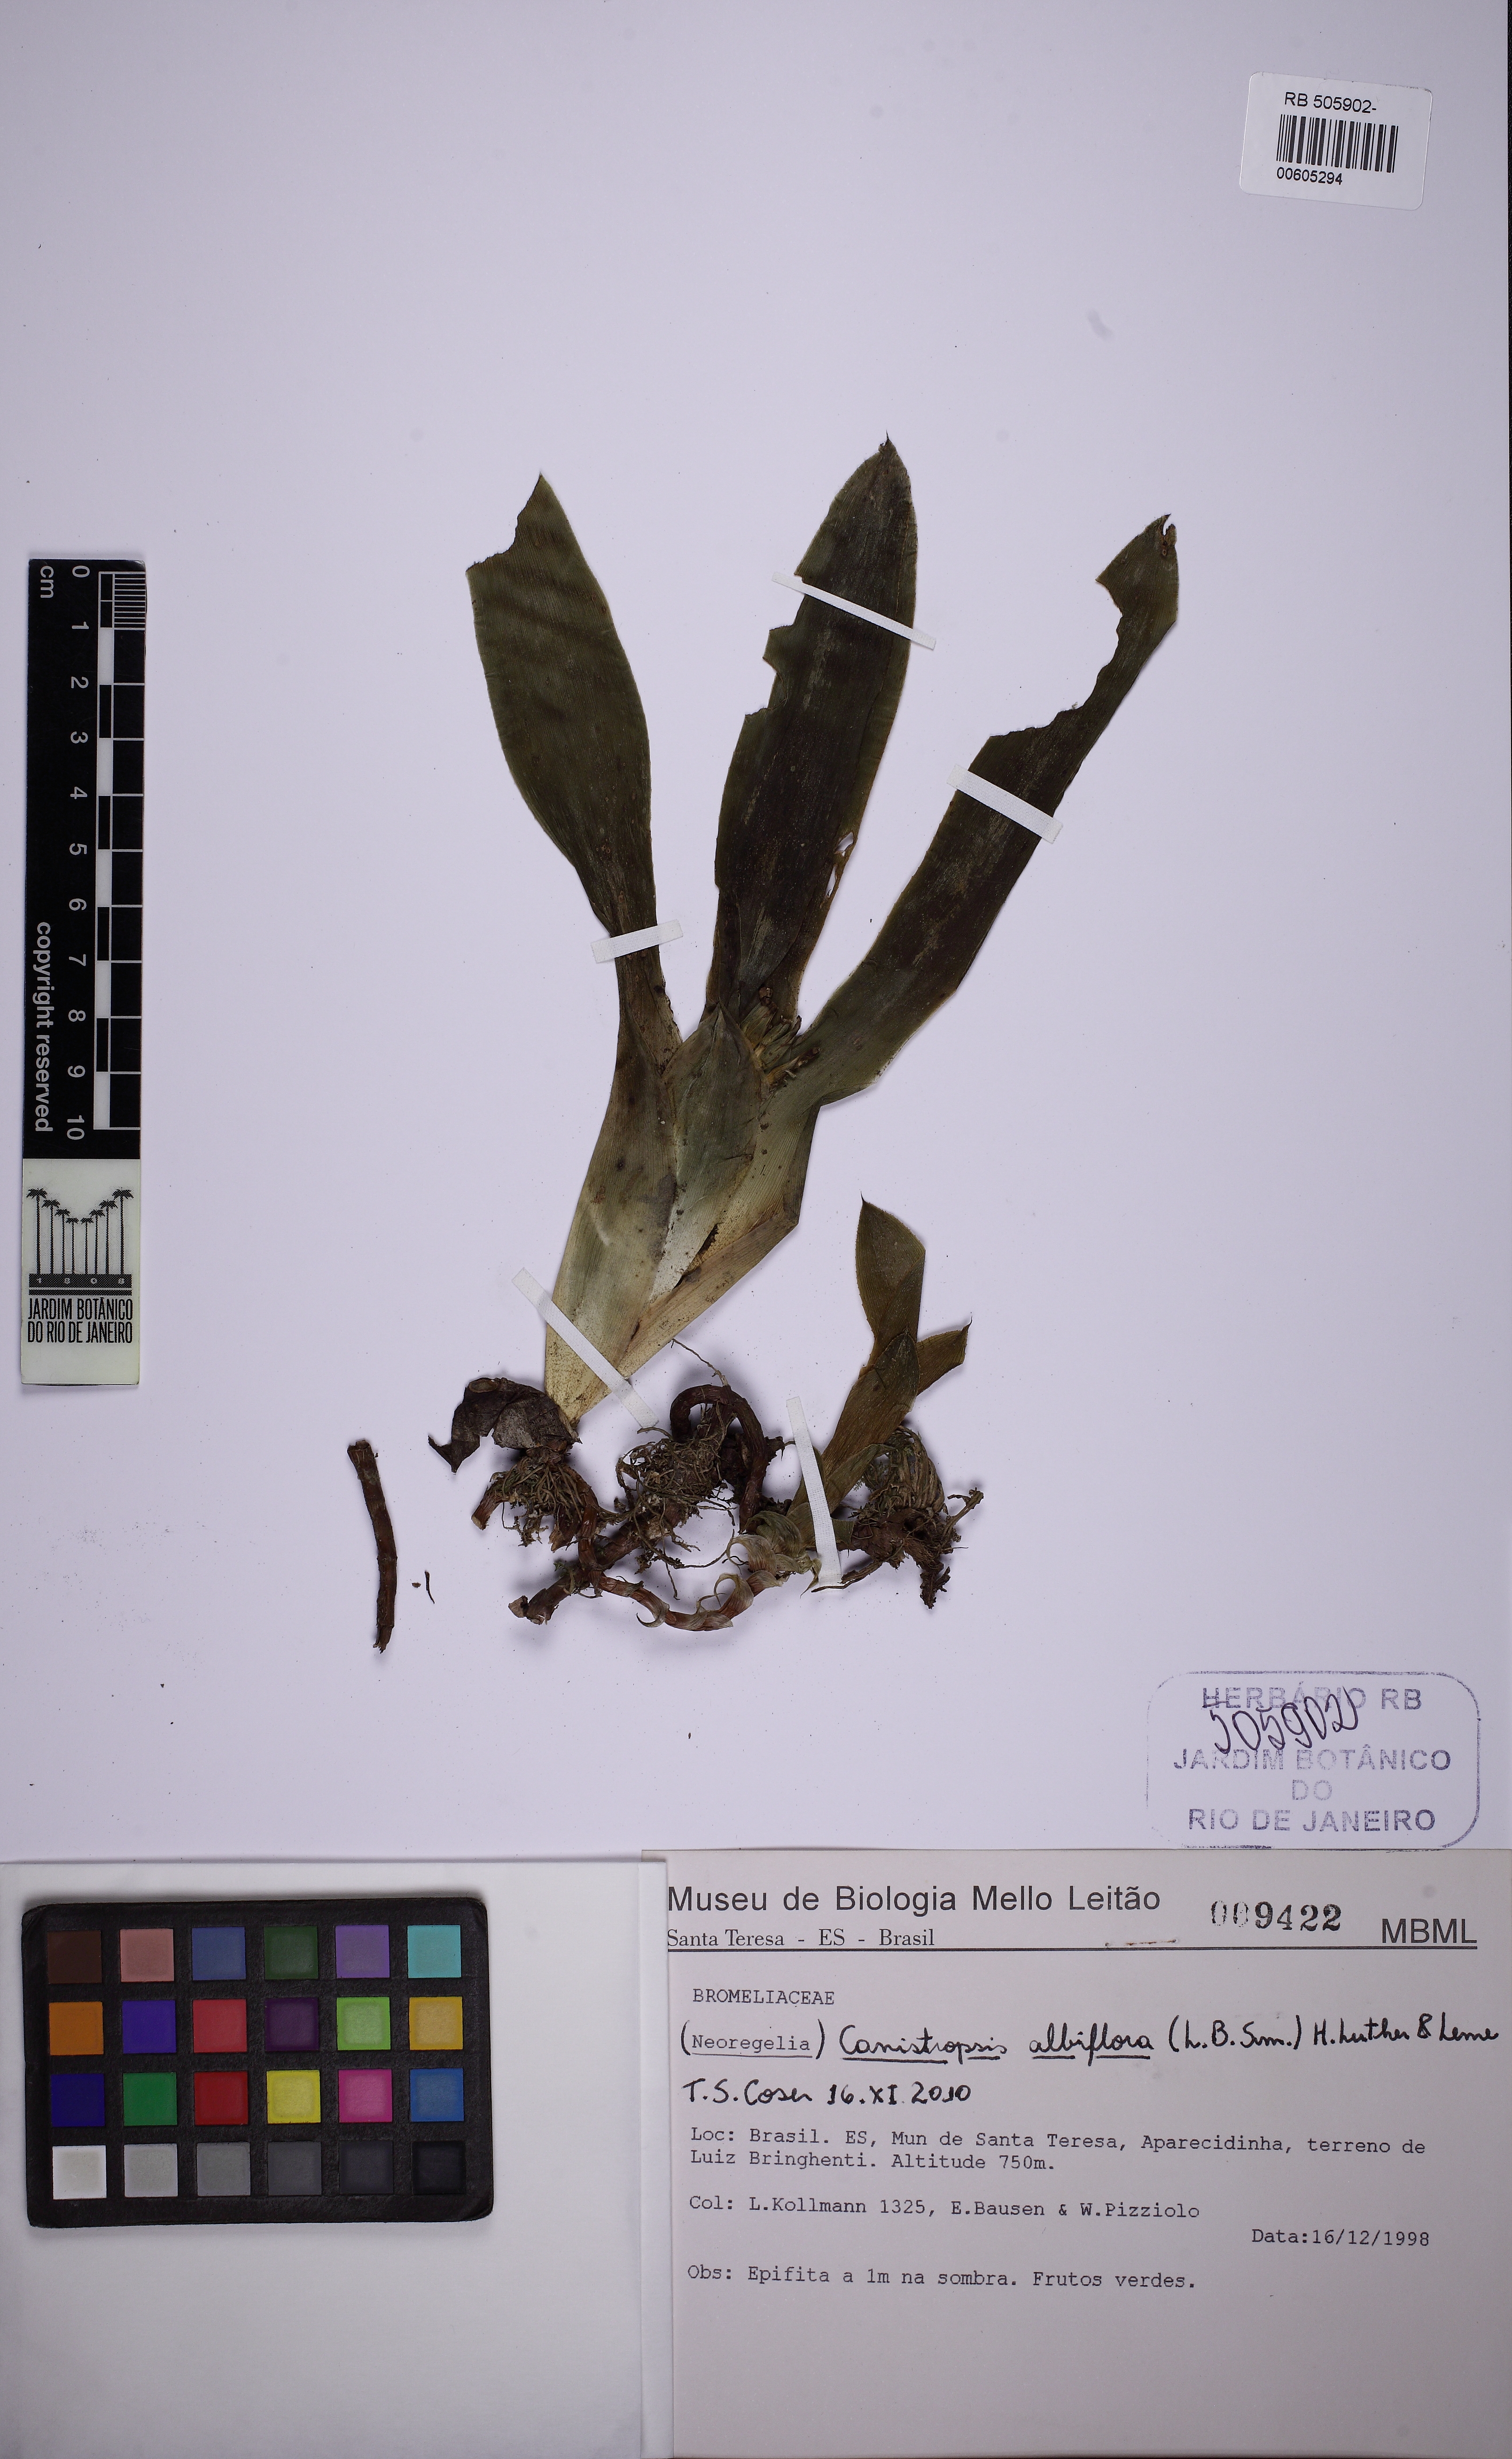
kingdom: Plantae
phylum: Tracheophyta
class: Liliopsida
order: Poales
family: Bromeliaceae
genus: Canistropsis
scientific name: Canistropsis albiflora
